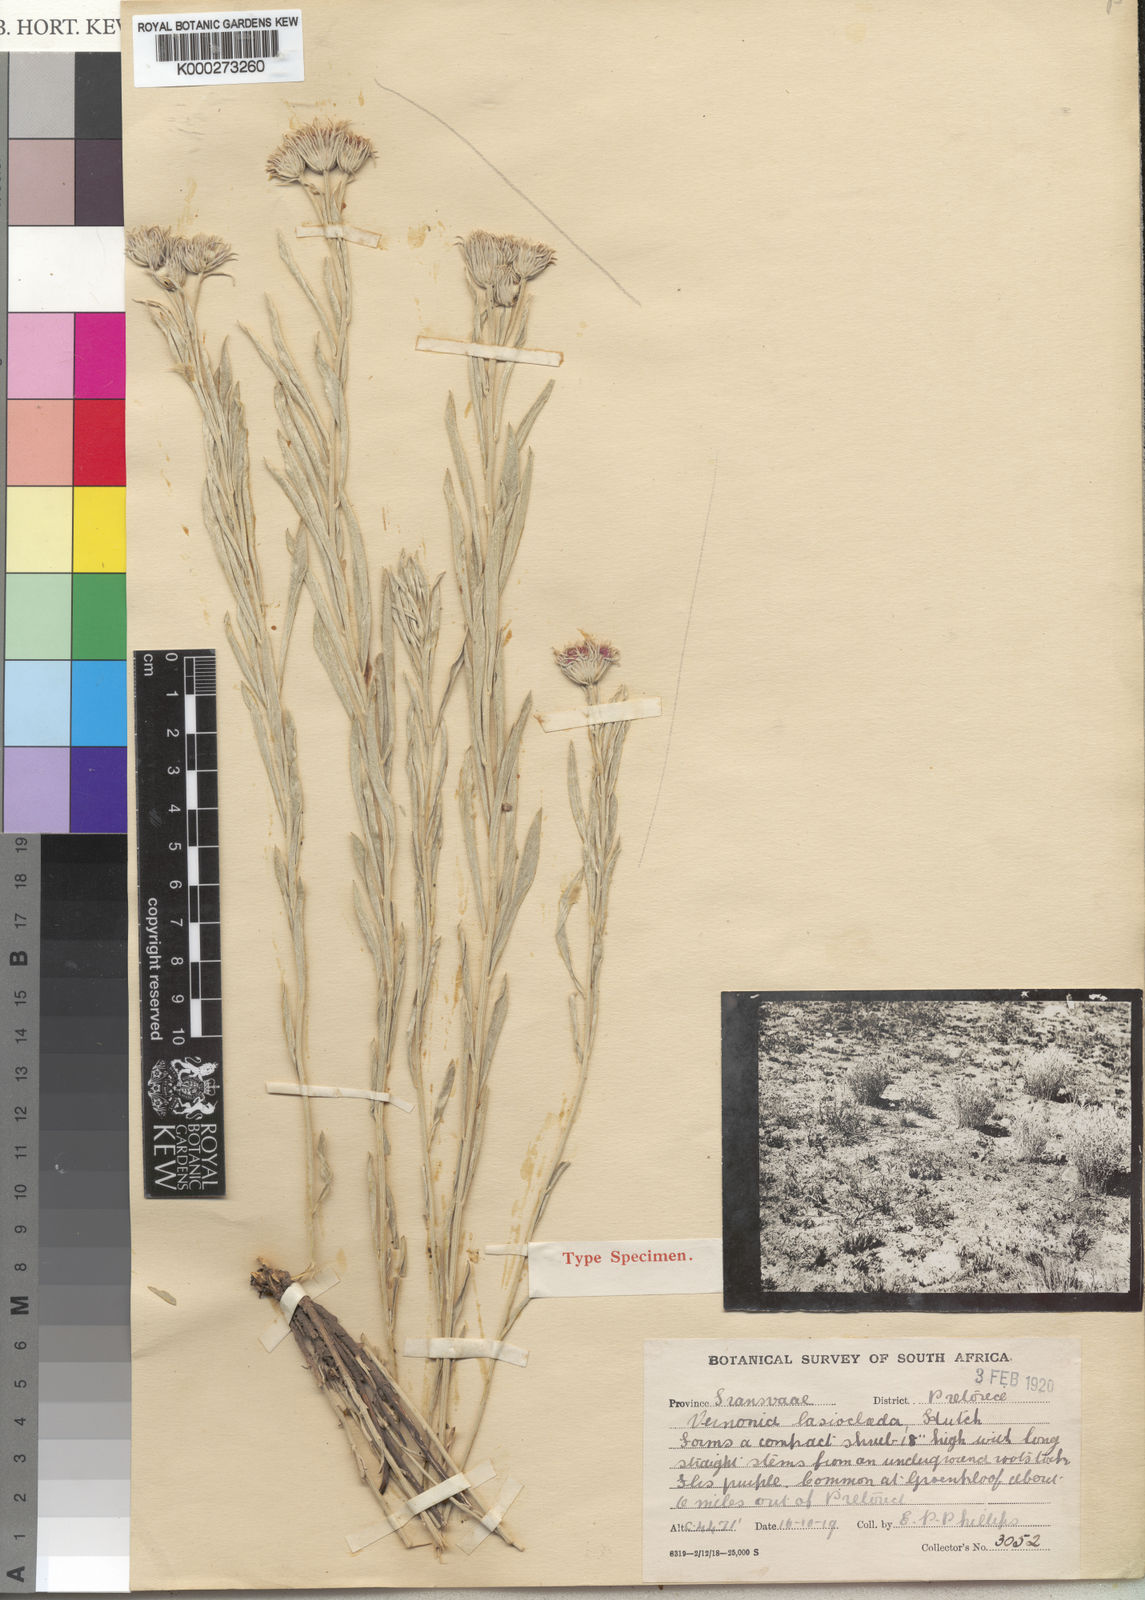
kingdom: Plantae
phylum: Tracheophyta
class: Magnoliopsida
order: Asterales
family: Asteraceae
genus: Vernonia
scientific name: Vernonia
